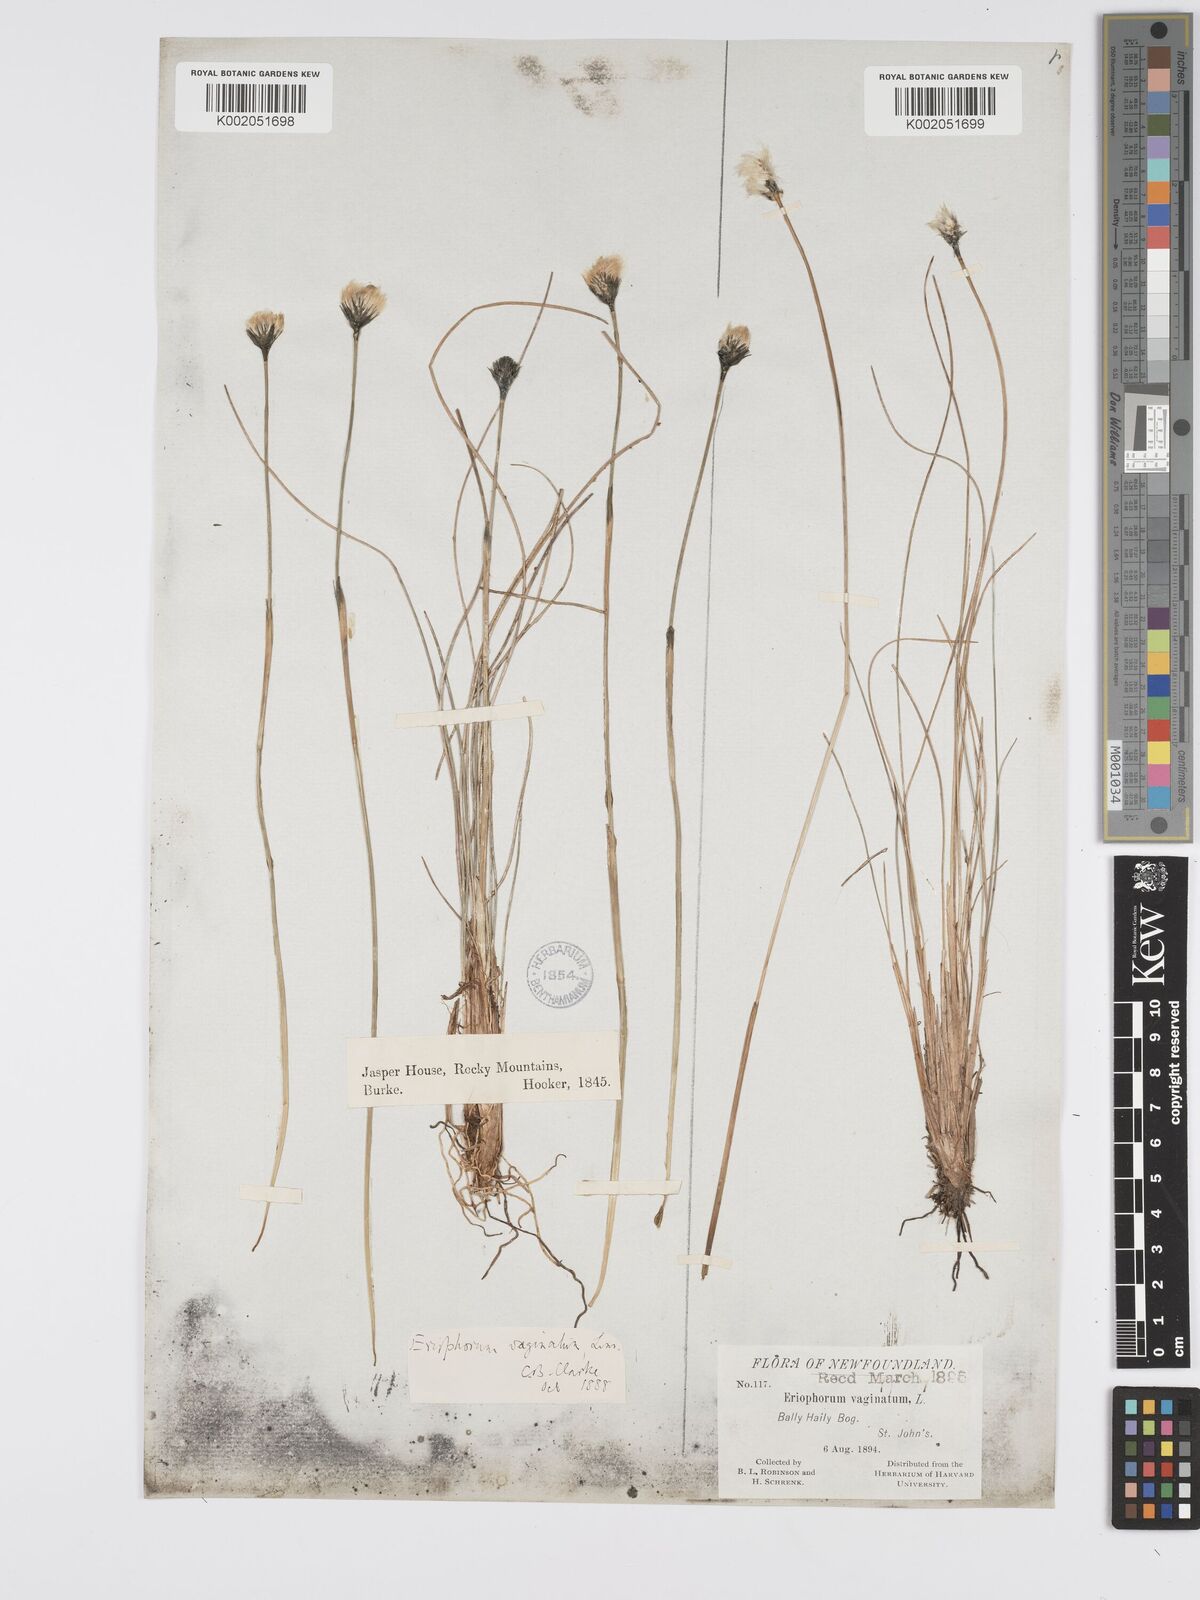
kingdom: Plantae
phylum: Tracheophyta
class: Liliopsida
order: Poales
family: Cyperaceae
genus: Eriophorum
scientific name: Eriophorum vaginatum
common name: Hare's-tail cottongrass
